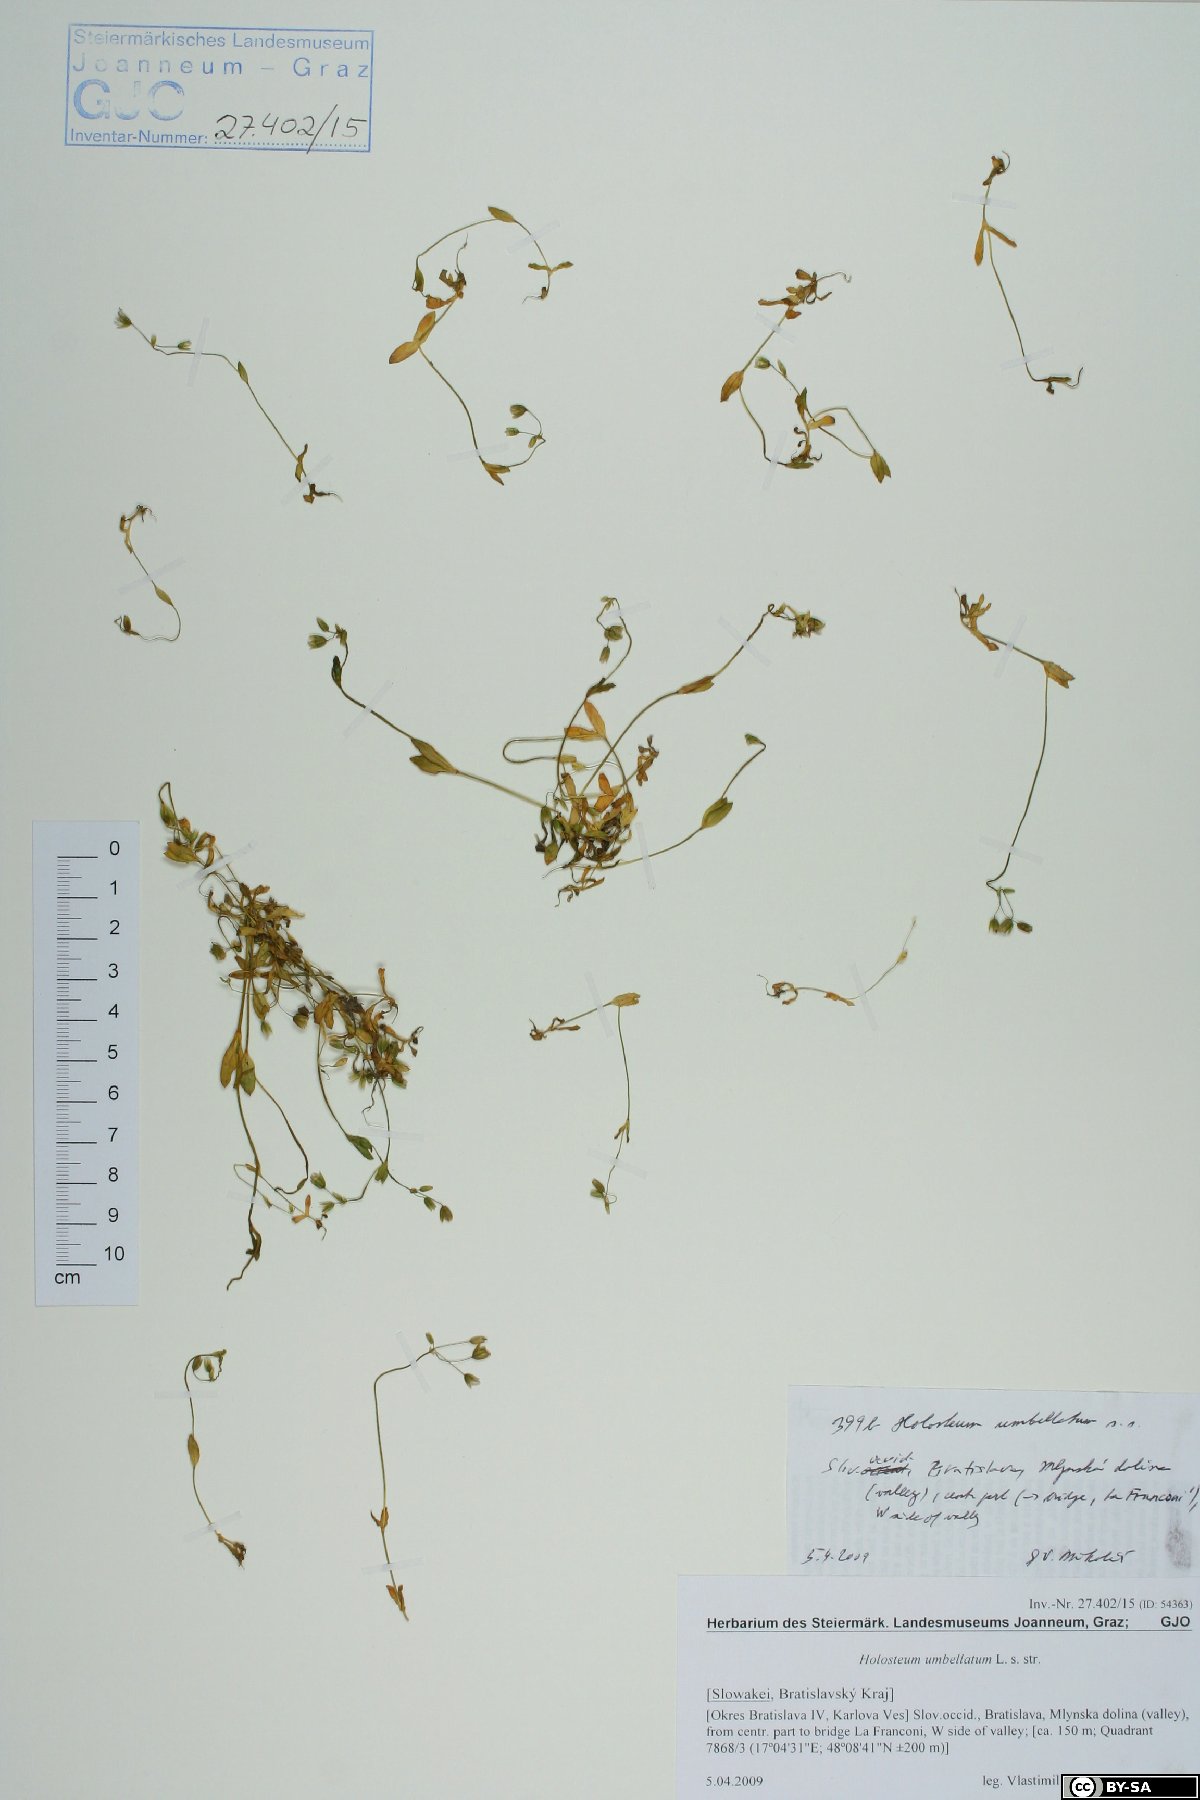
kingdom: Plantae
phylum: Tracheophyta
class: Magnoliopsida
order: Caryophyllales
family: Caryophyllaceae
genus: Holosteum
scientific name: Holosteum umbellatum
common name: Jagged chickweed
